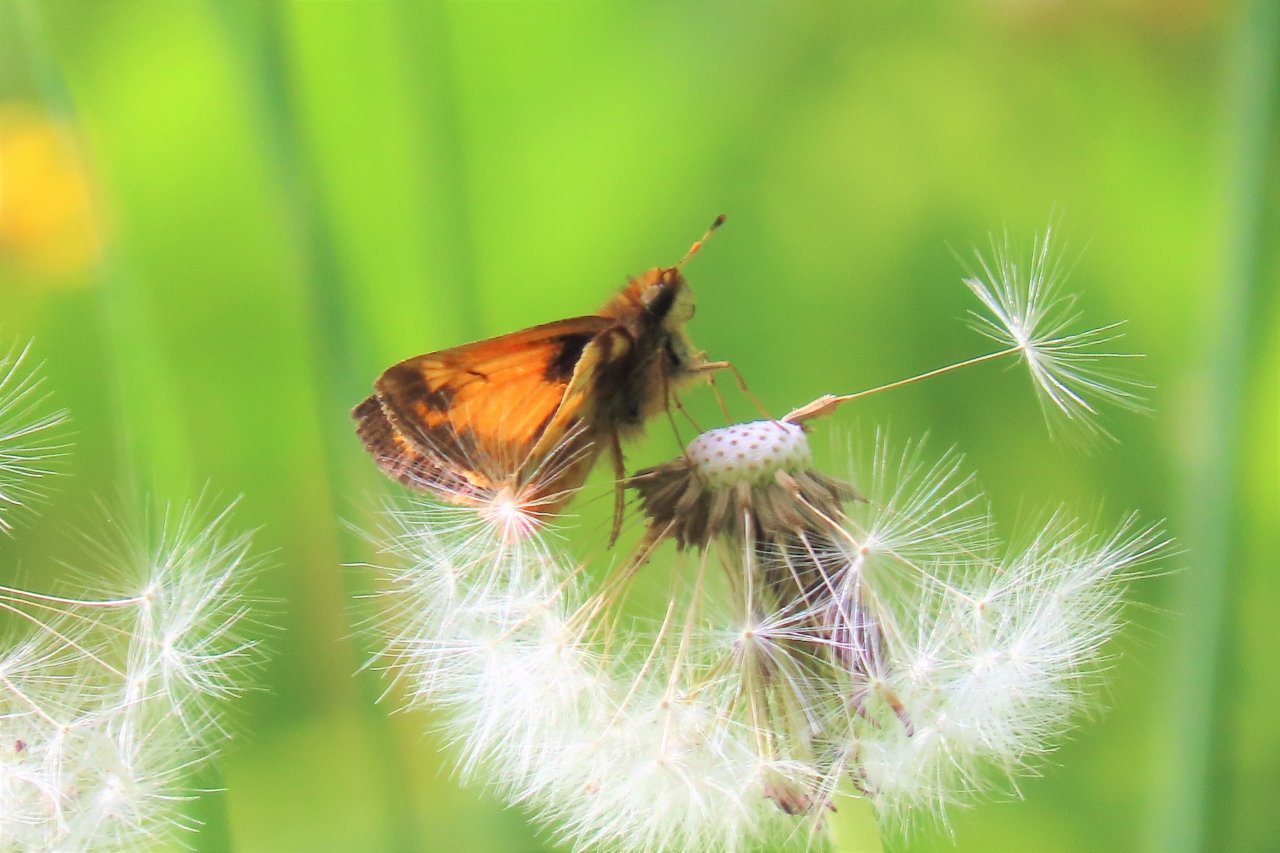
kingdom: Animalia
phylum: Arthropoda
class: Insecta
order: Lepidoptera
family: Hesperiidae
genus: Lon
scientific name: Lon zabulon
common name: Zabulon Skipper
